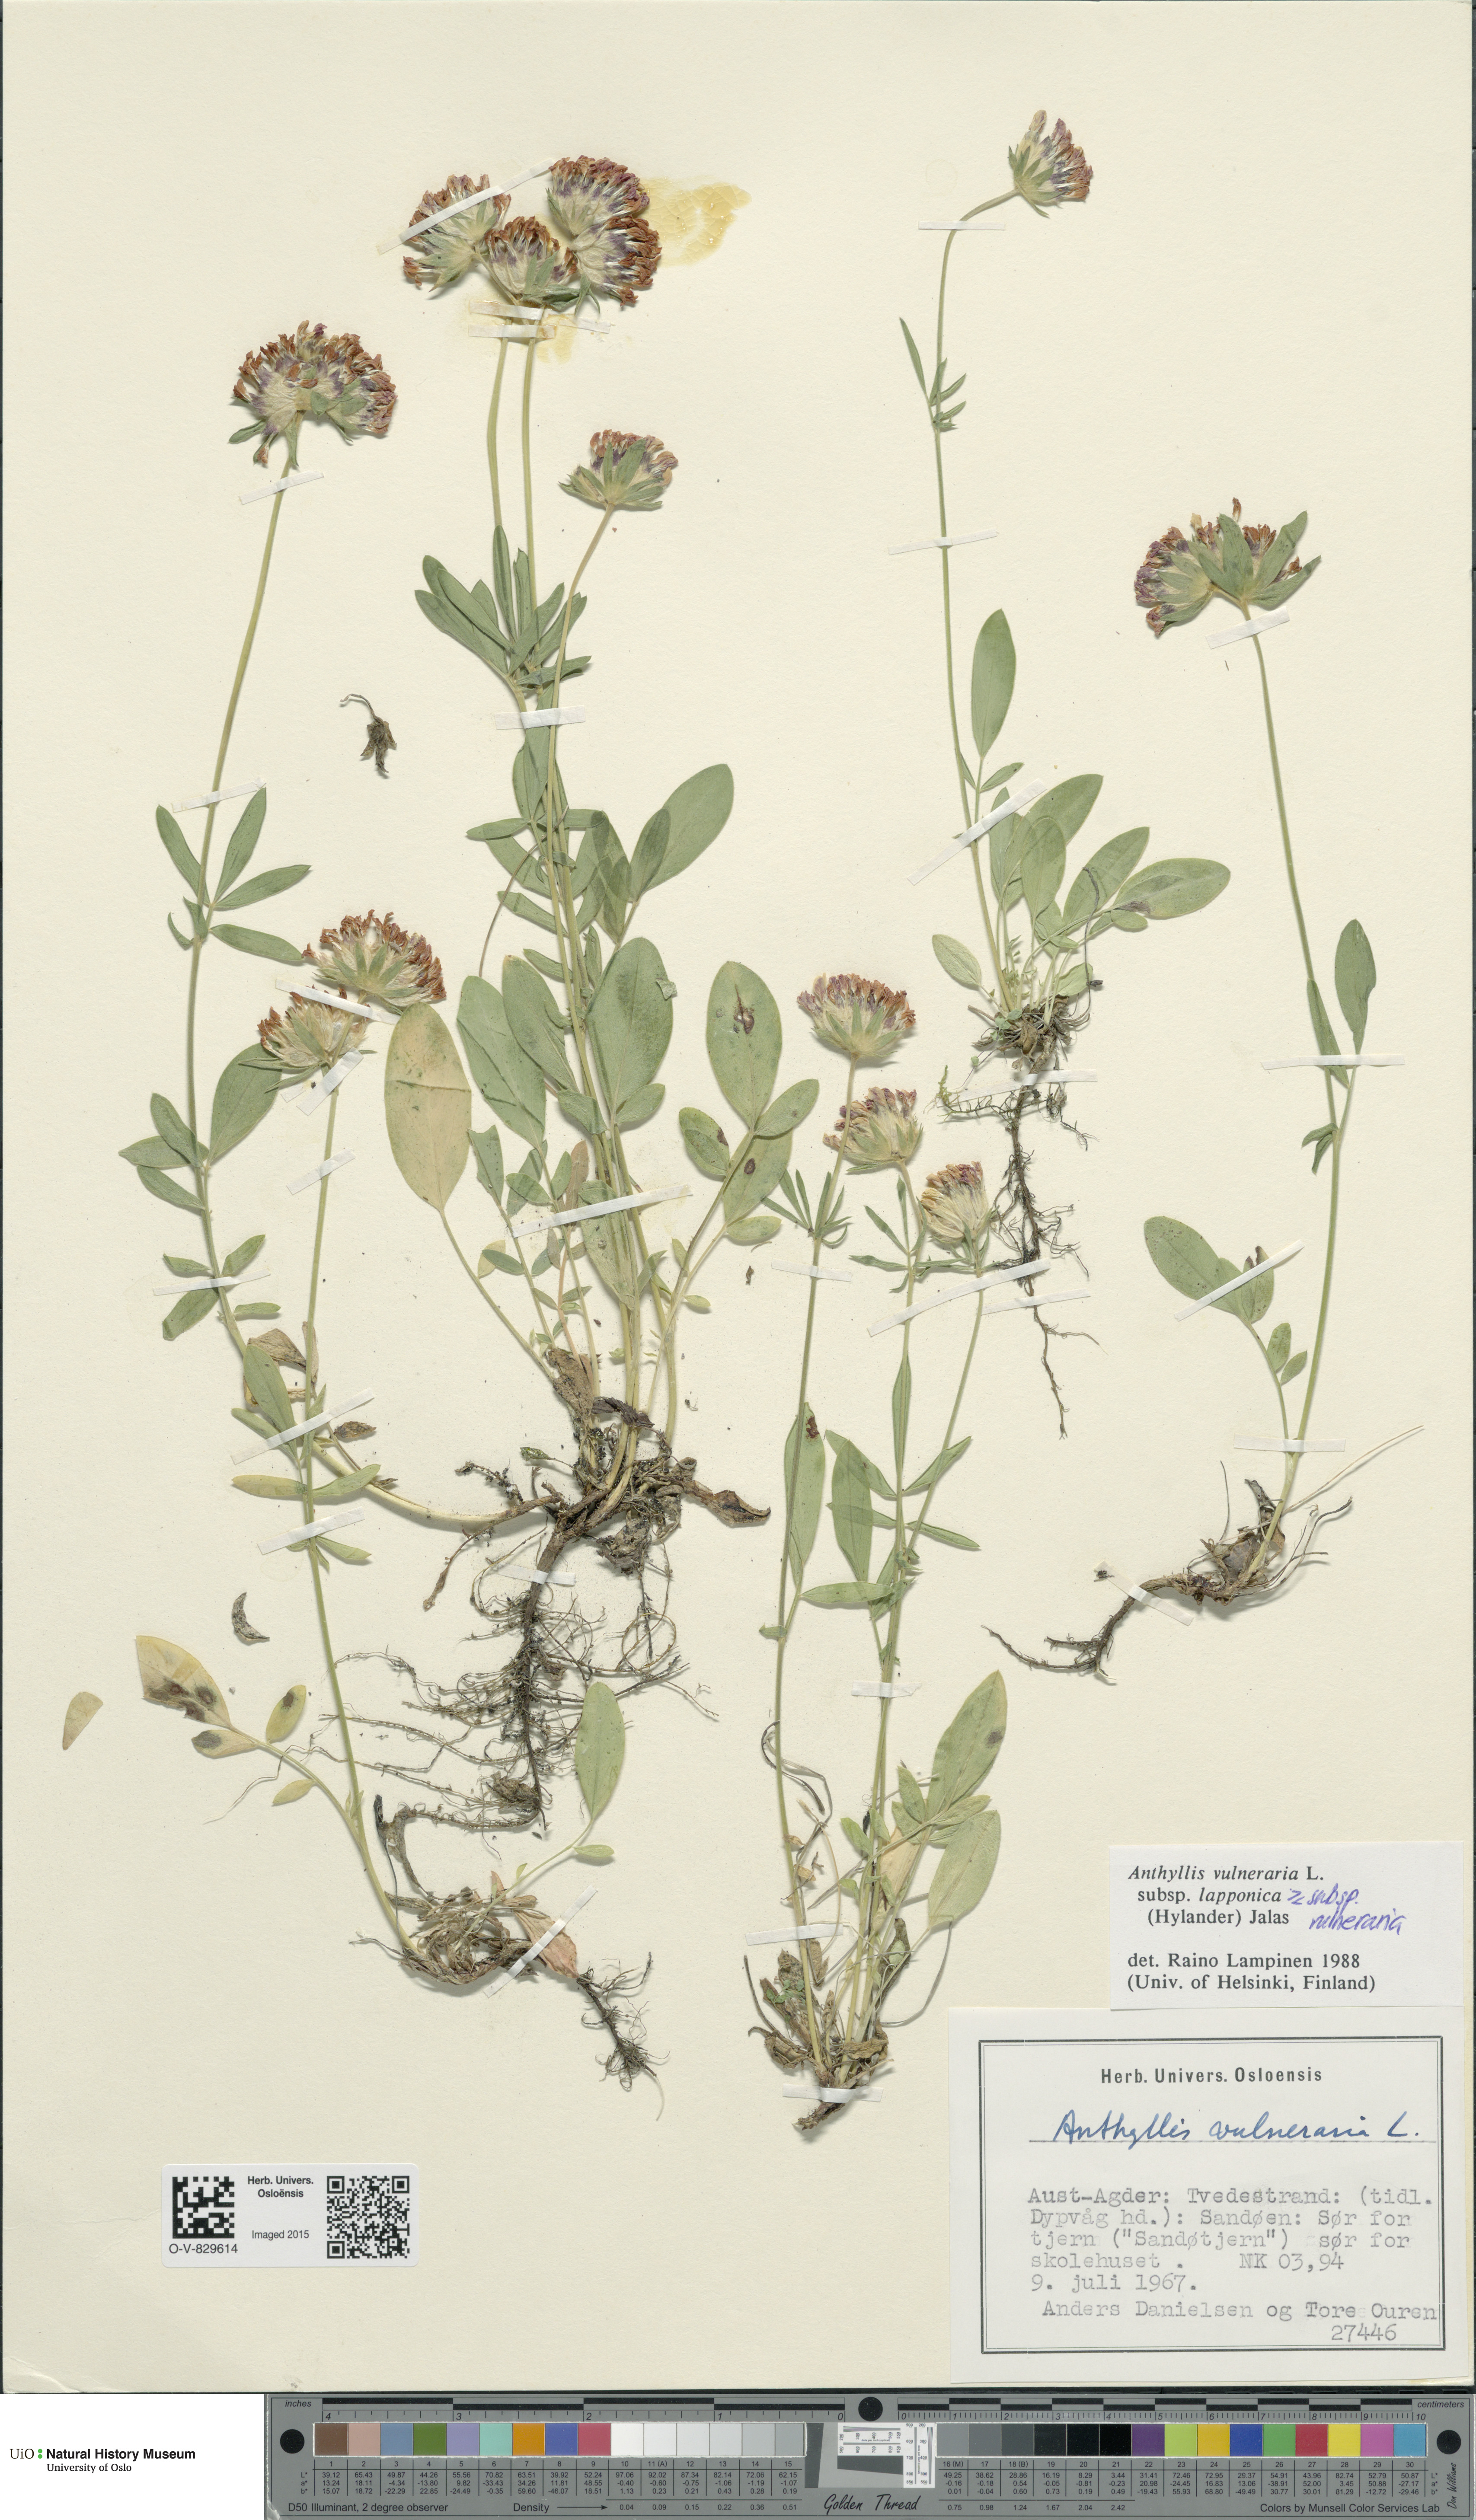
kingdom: Plantae
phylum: Tracheophyta
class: Magnoliopsida
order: Fabales
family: Fabaceae
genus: Anthyllis
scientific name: Anthyllis
